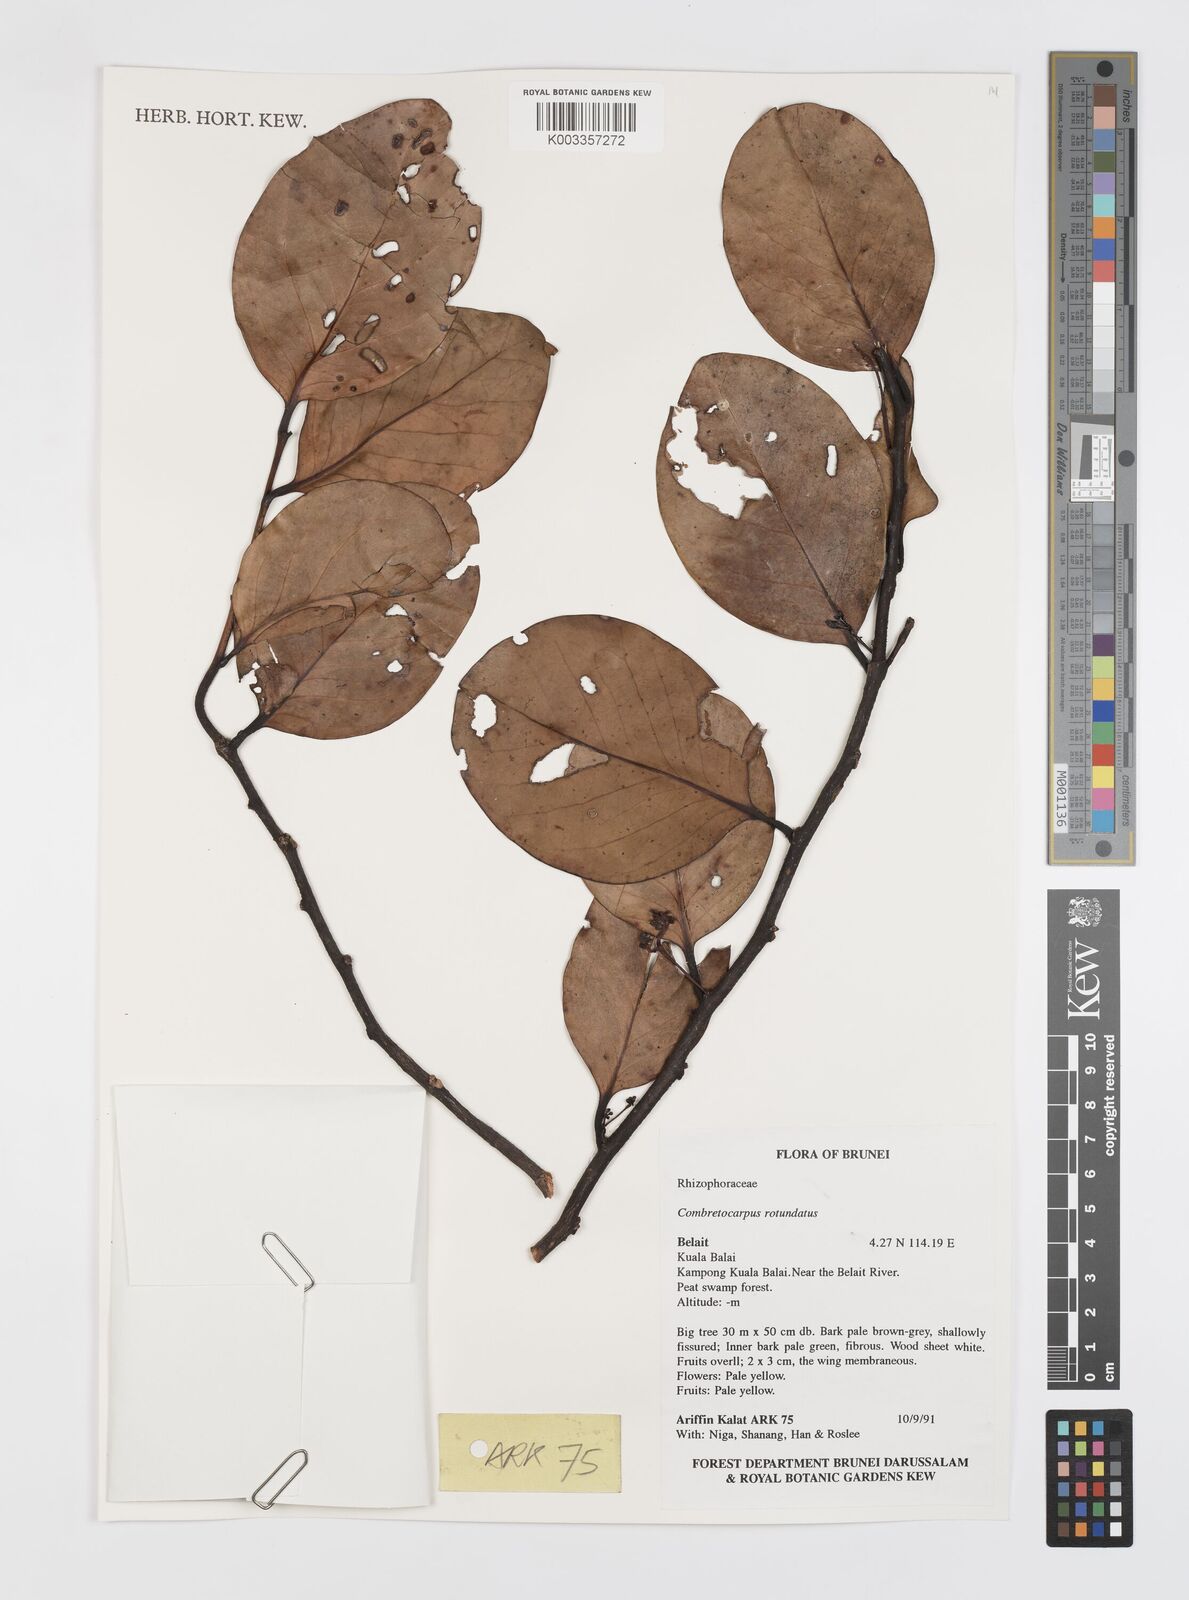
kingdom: Plantae
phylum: Tracheophyta
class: Magnoliopsida
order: Cucurbitales
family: Anisophylleaceae
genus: Combretocarpus
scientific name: Combretocarpus rotundatus
